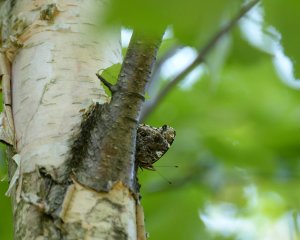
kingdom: Animalia
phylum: Arthropoda
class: Insecta
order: Lepidoptera
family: Nymphalidae
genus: Vanessa
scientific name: Vanessa atalanta
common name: Red Admiral
